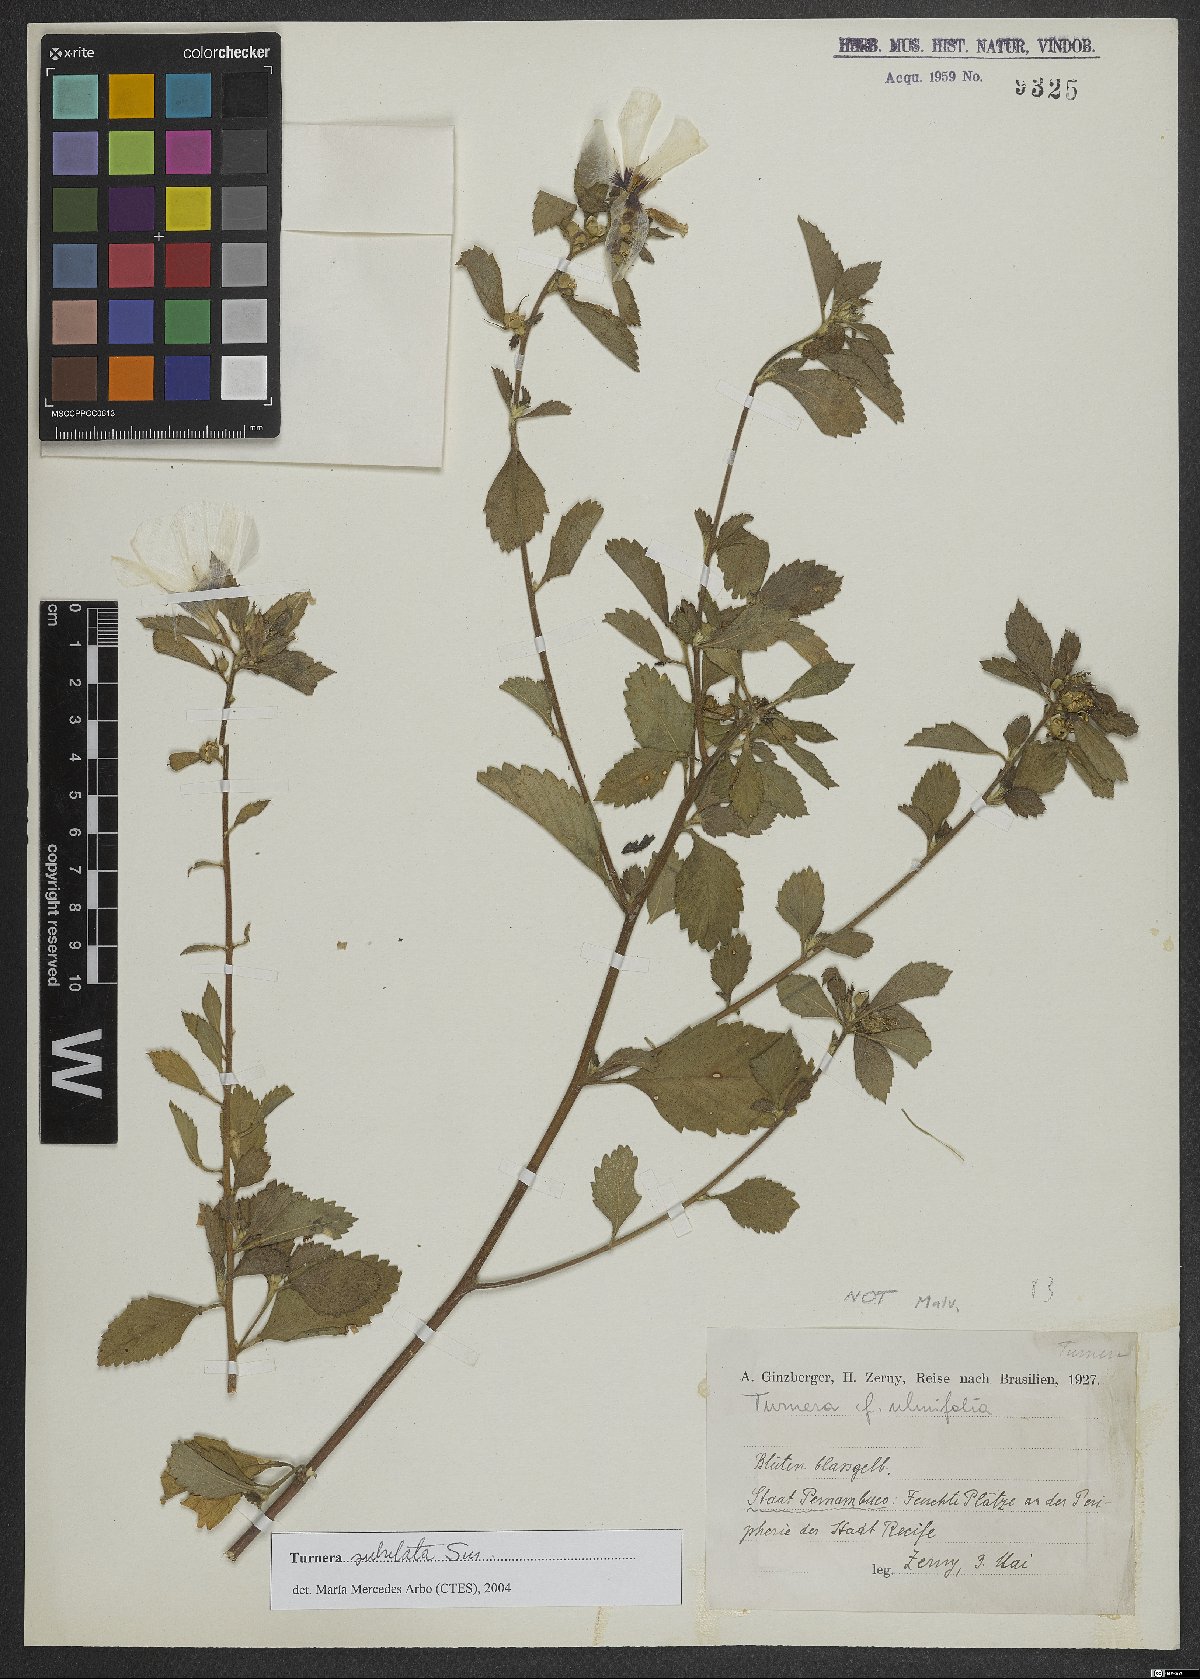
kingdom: Plantae
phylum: Tracheophyta
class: Magnoliopsida
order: Malpighiales
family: Turneraceae
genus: Turnera
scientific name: Turnera subulata
